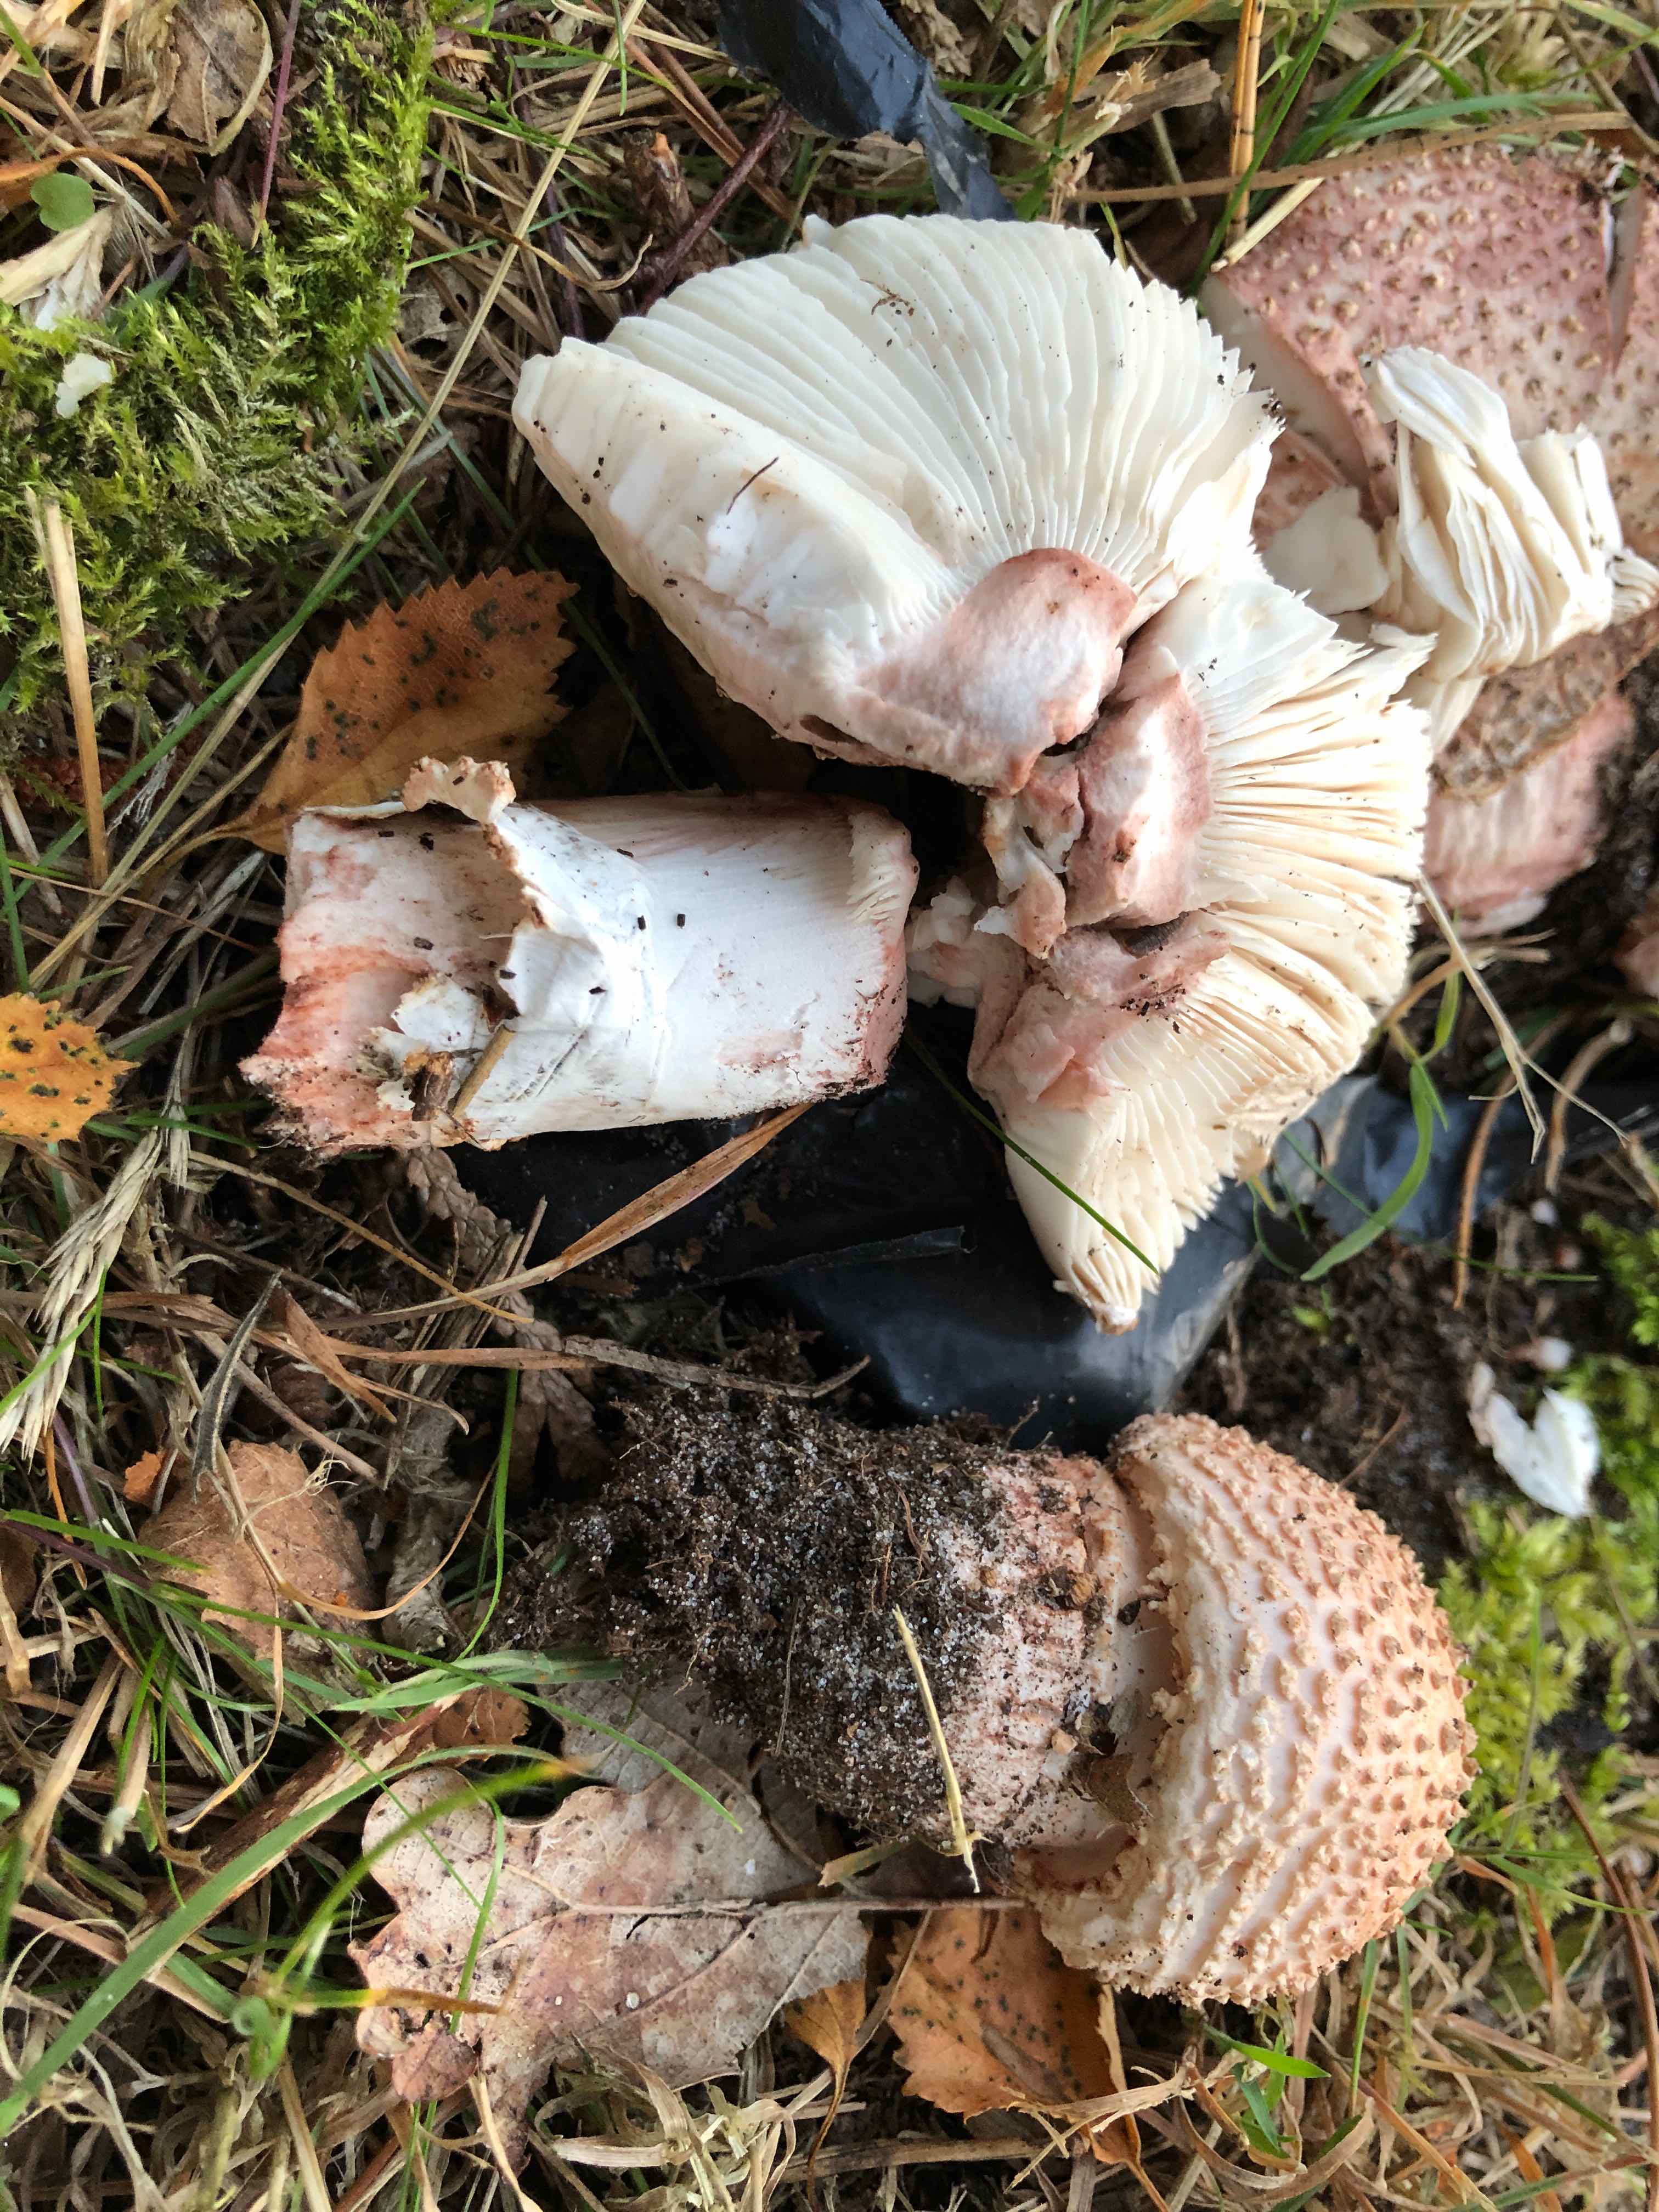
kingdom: Fungi
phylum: Basidiomycota
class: Agaricomycetes
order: Agaricales
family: Amanitaceae
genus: Amanita
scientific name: Amanita rubescens
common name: rødmende fluesvamp
